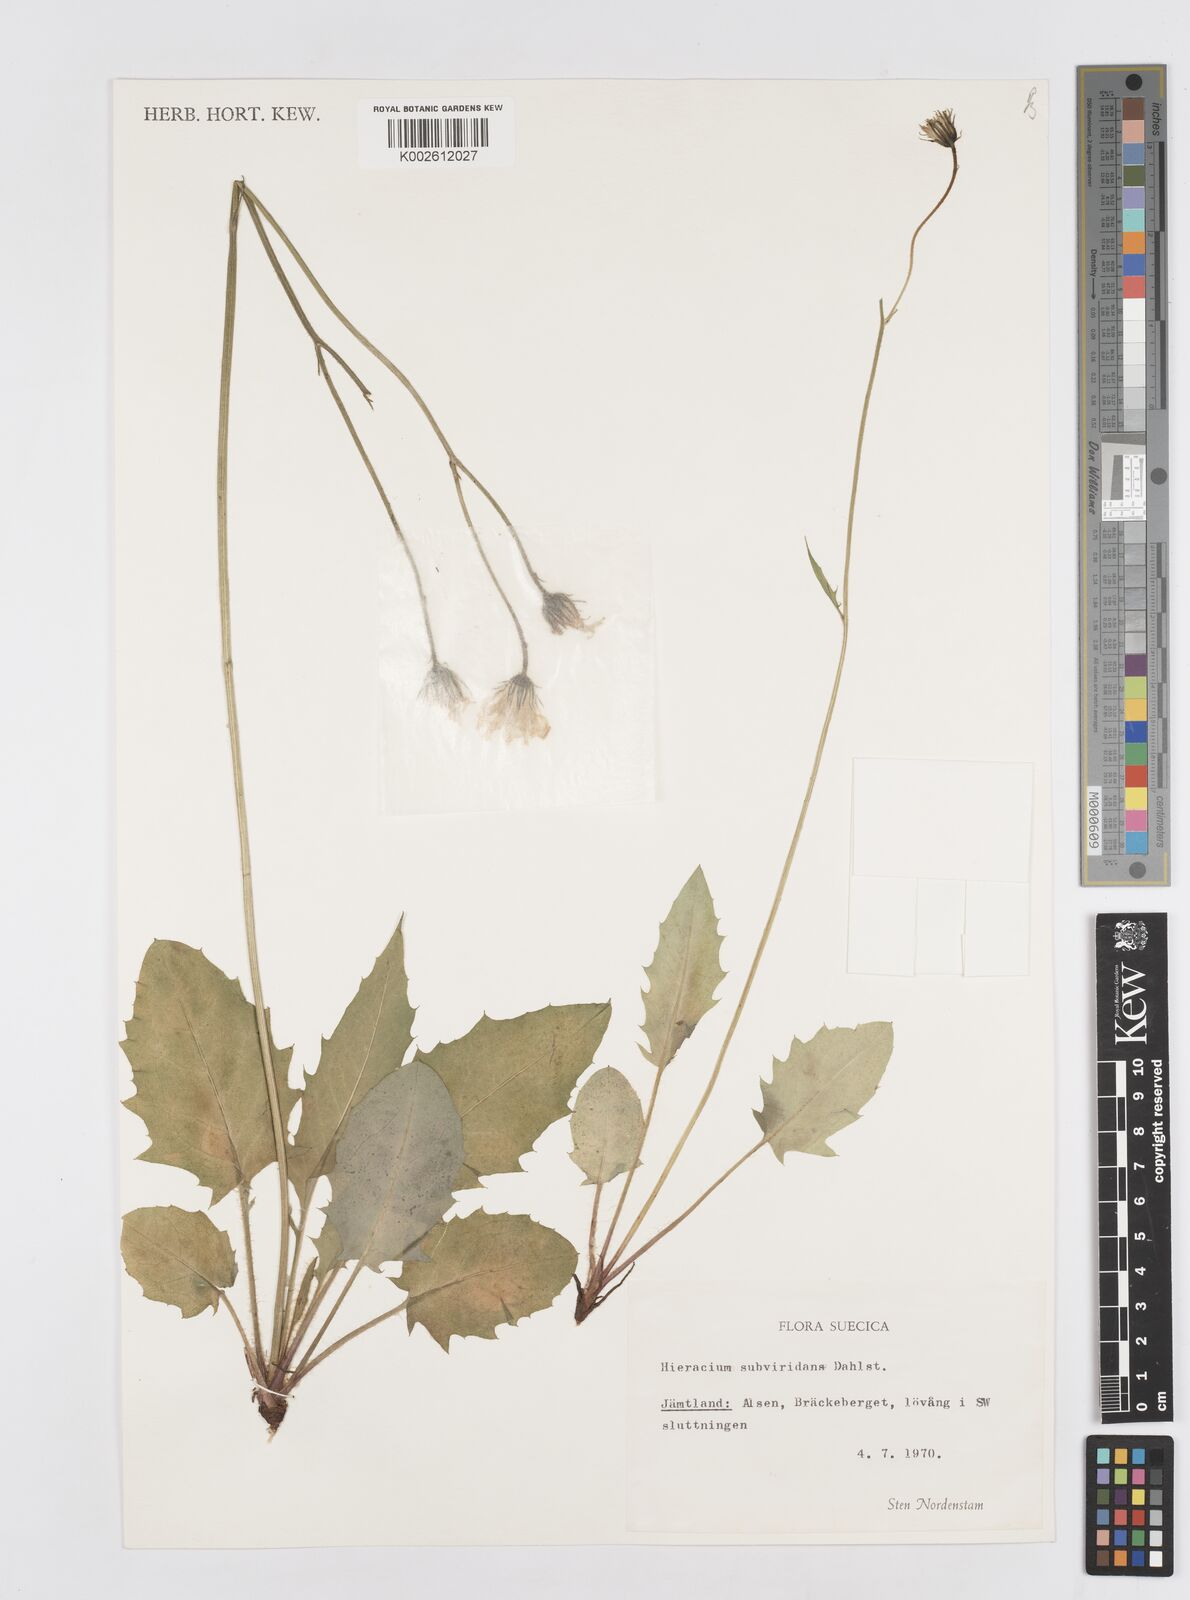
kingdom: Plantae
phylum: Tracheophyta
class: Magnoliopsida
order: Asterales
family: Asteraceae
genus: Hieracium
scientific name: Hieracium subviridans
